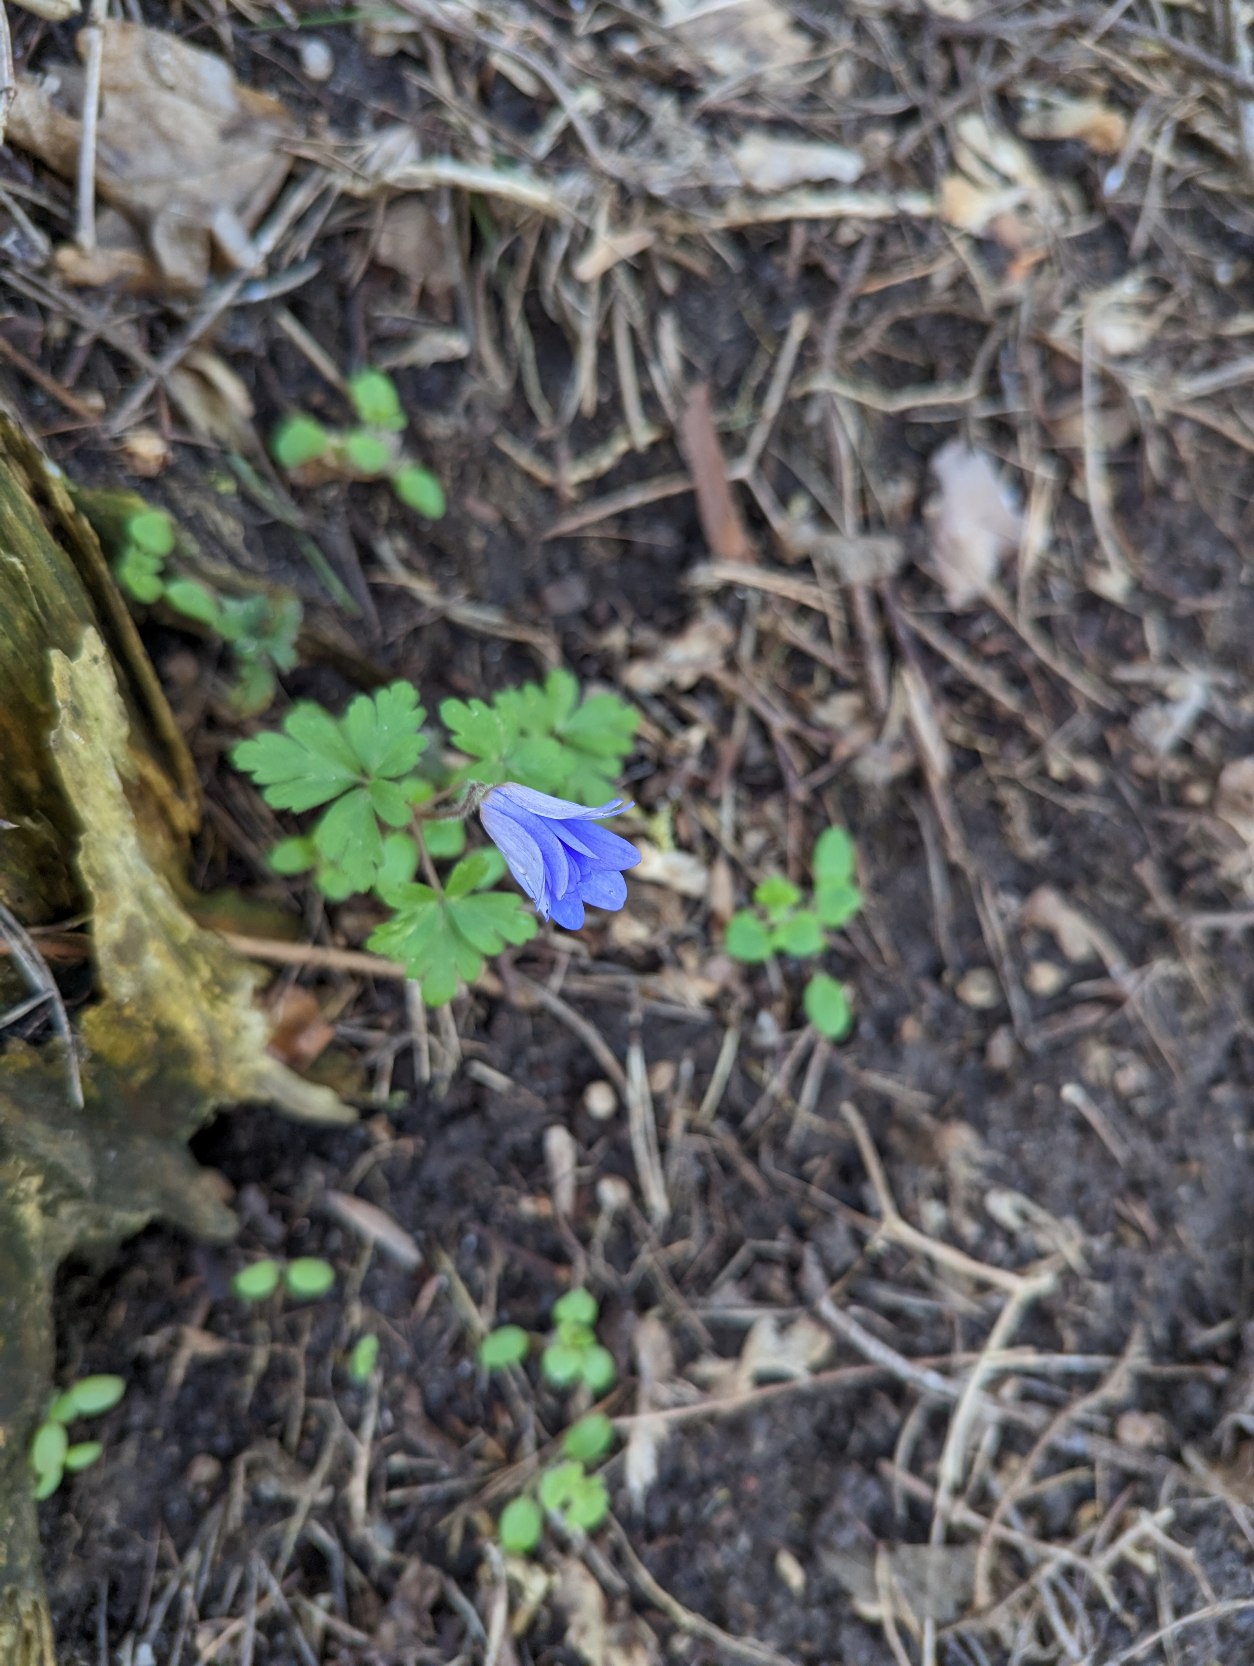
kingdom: Plantae
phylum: Tracheophyta
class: Magnoliopsida
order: Ranunculales
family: Ranunculaceae
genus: Anemone
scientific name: Anemone blanda
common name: Balkan-anemone
